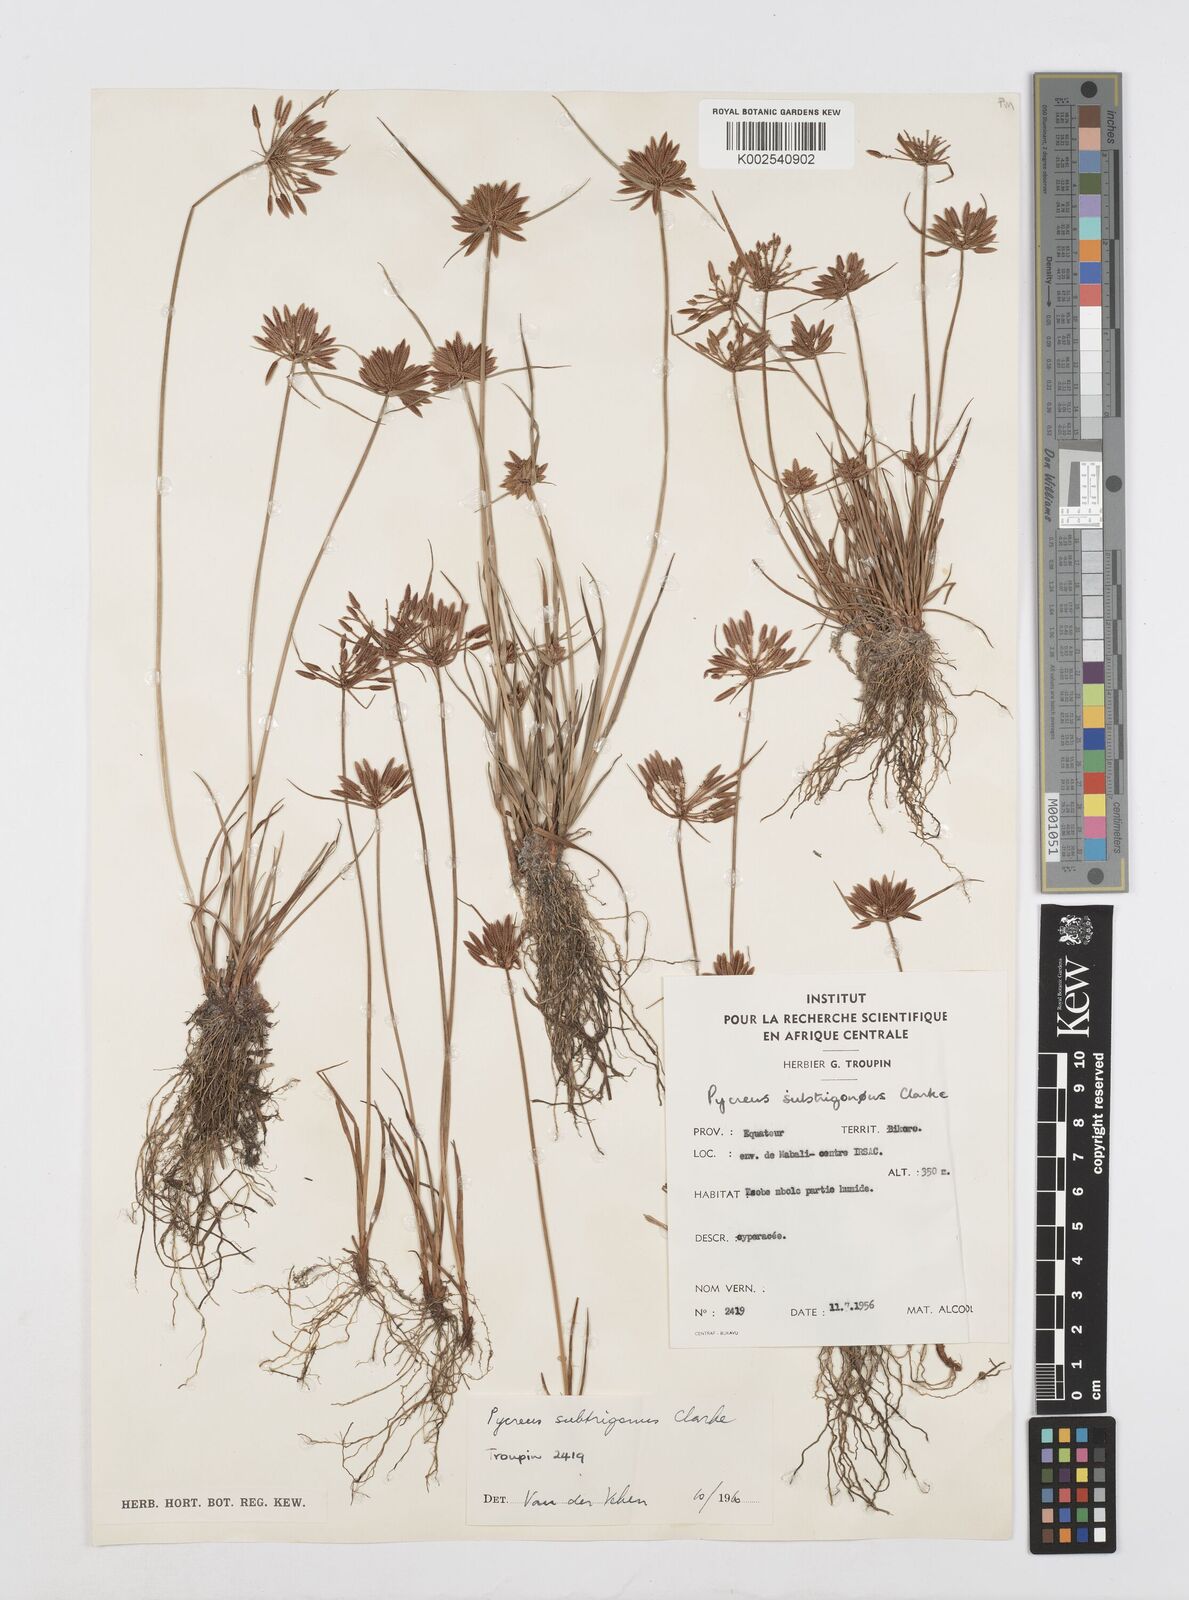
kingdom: Plantae
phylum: Tracheophyta
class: Liliopsida
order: Poales
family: Cyperaceae
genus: Cyperus
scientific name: Cyperus subtrigonus
